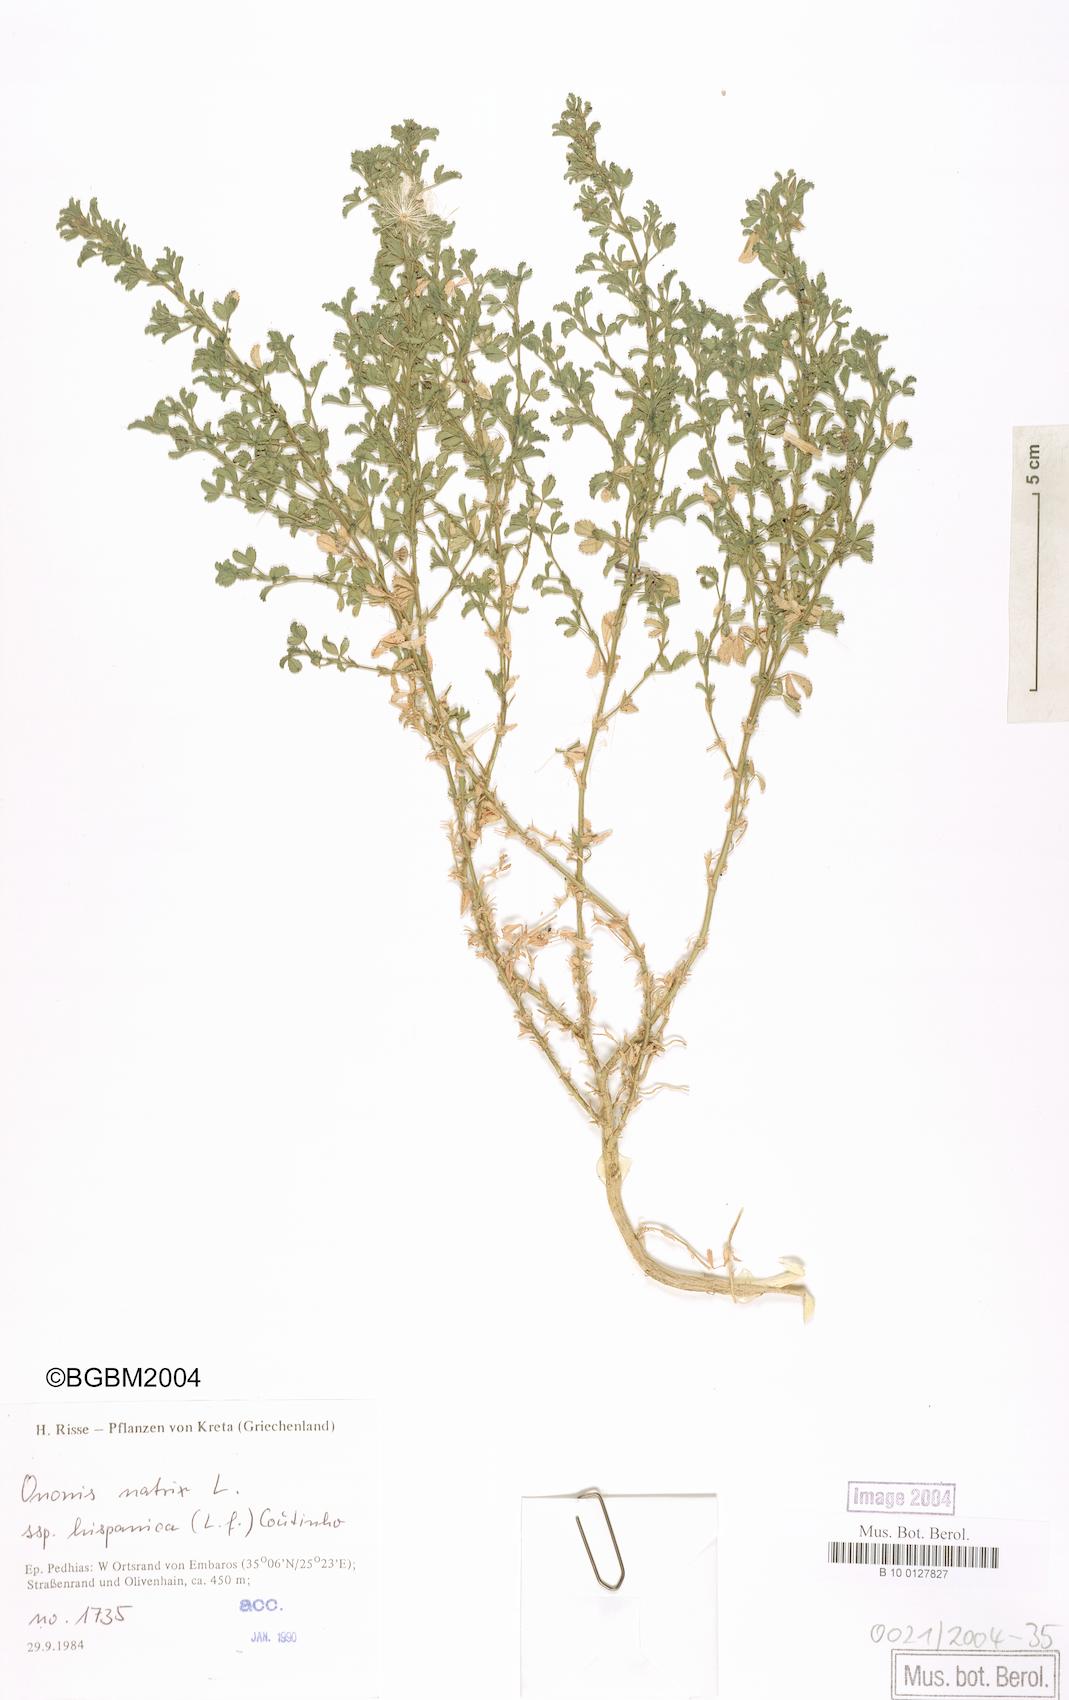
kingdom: Plantae
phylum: Tracheophyta
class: Magnoliopsida
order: Fabales
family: Fabaceae
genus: Ononis
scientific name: Ononis natrix
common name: Yellow restharrow
